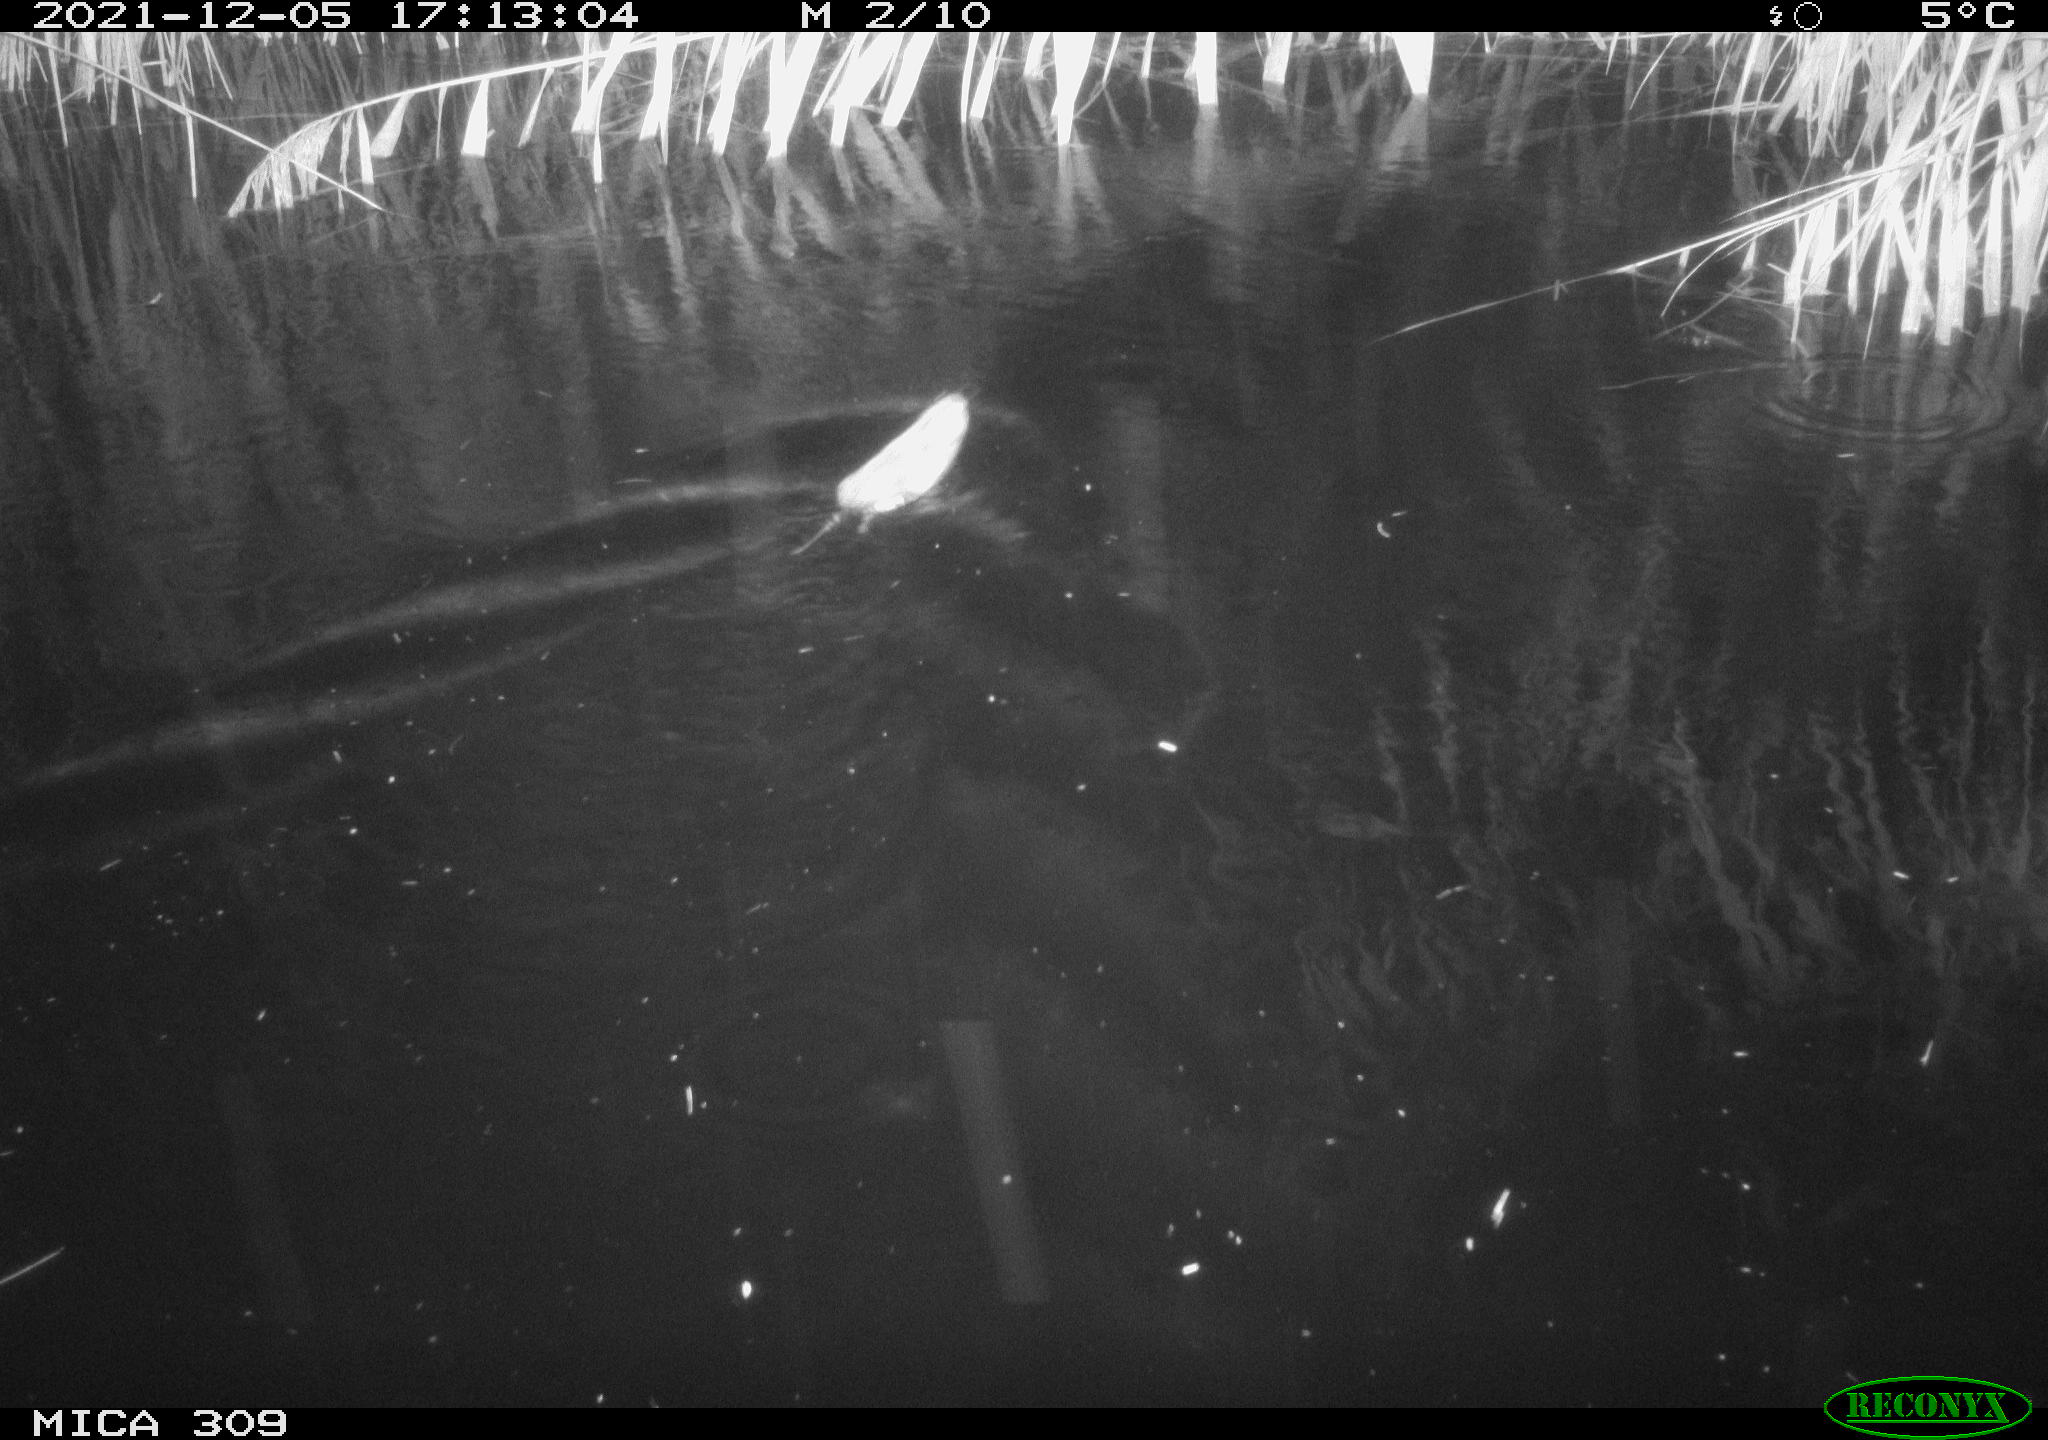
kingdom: Animalia
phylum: Chordata
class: Mammalia
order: Rodentia
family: Muridae
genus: Rattus
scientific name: Rattus norvegicus
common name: Brown rat
